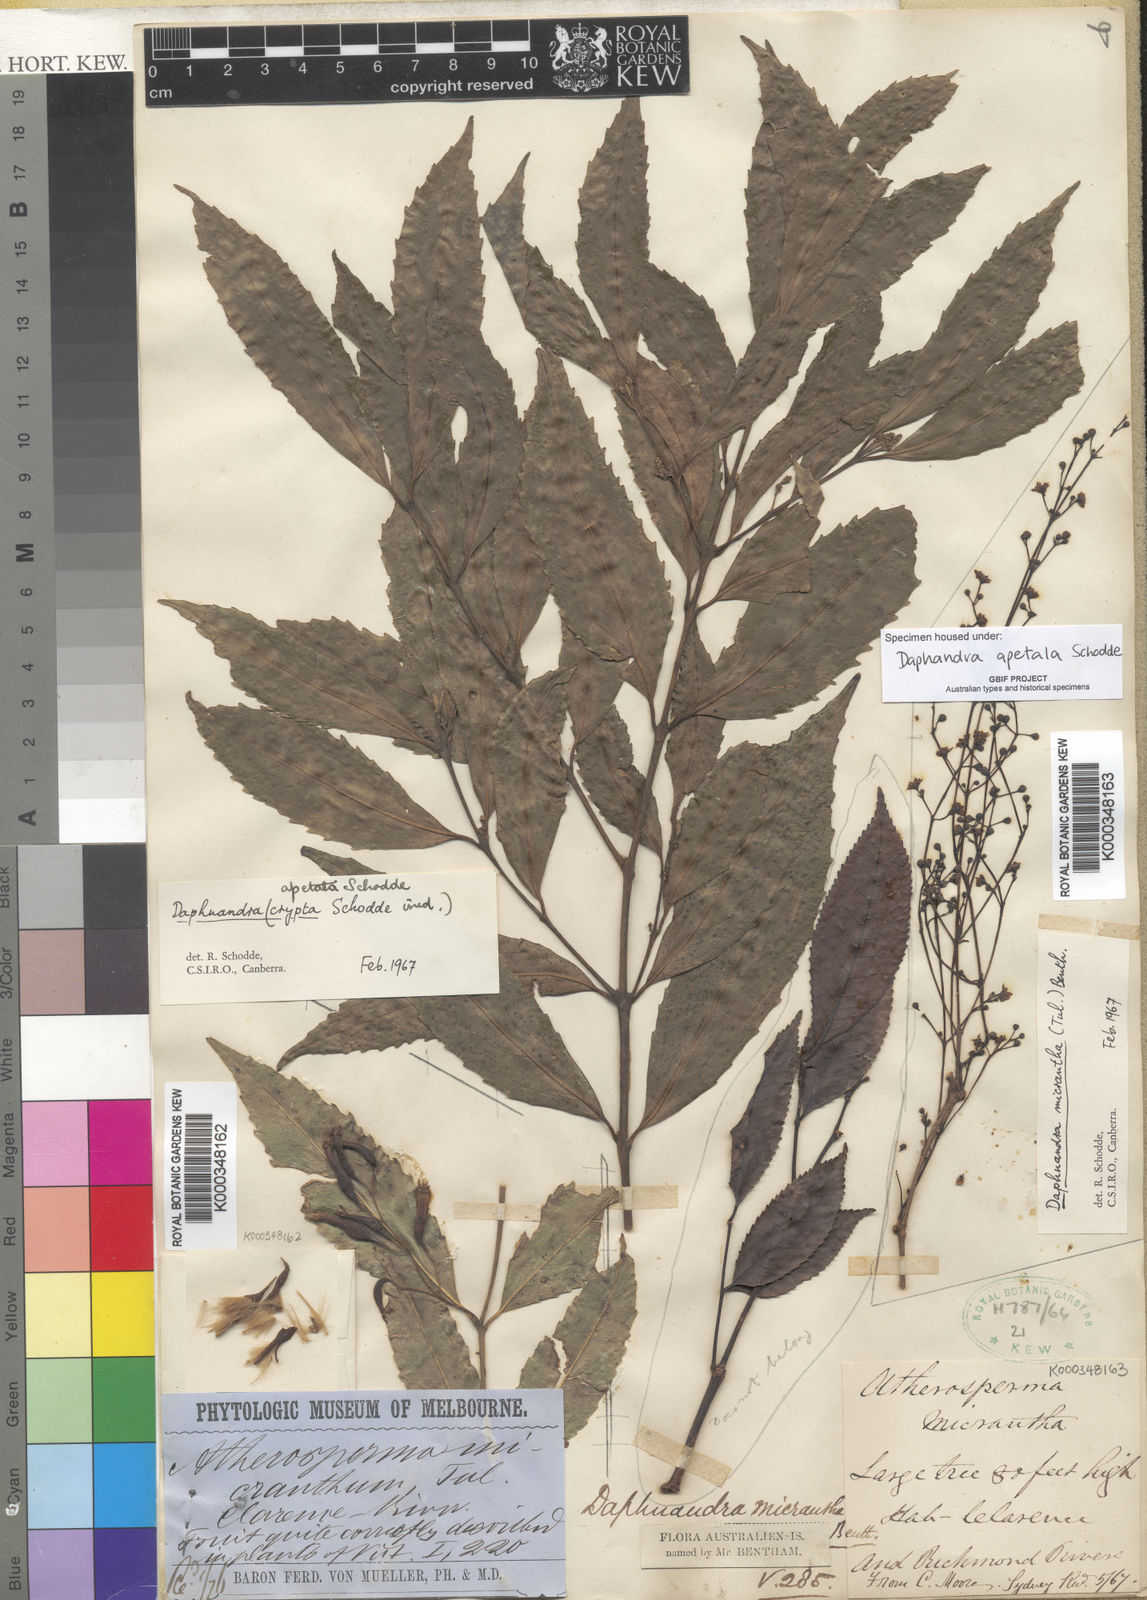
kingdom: Plantae
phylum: Tracheophyta
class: Magnoliopsida
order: Solanales
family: Solanaceae
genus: Solanum
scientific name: Solanum bahamense
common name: Canker-berry
